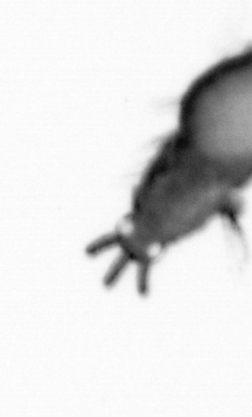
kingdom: Animalia
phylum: Annelida
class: Polychaeta
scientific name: Polychaeta
